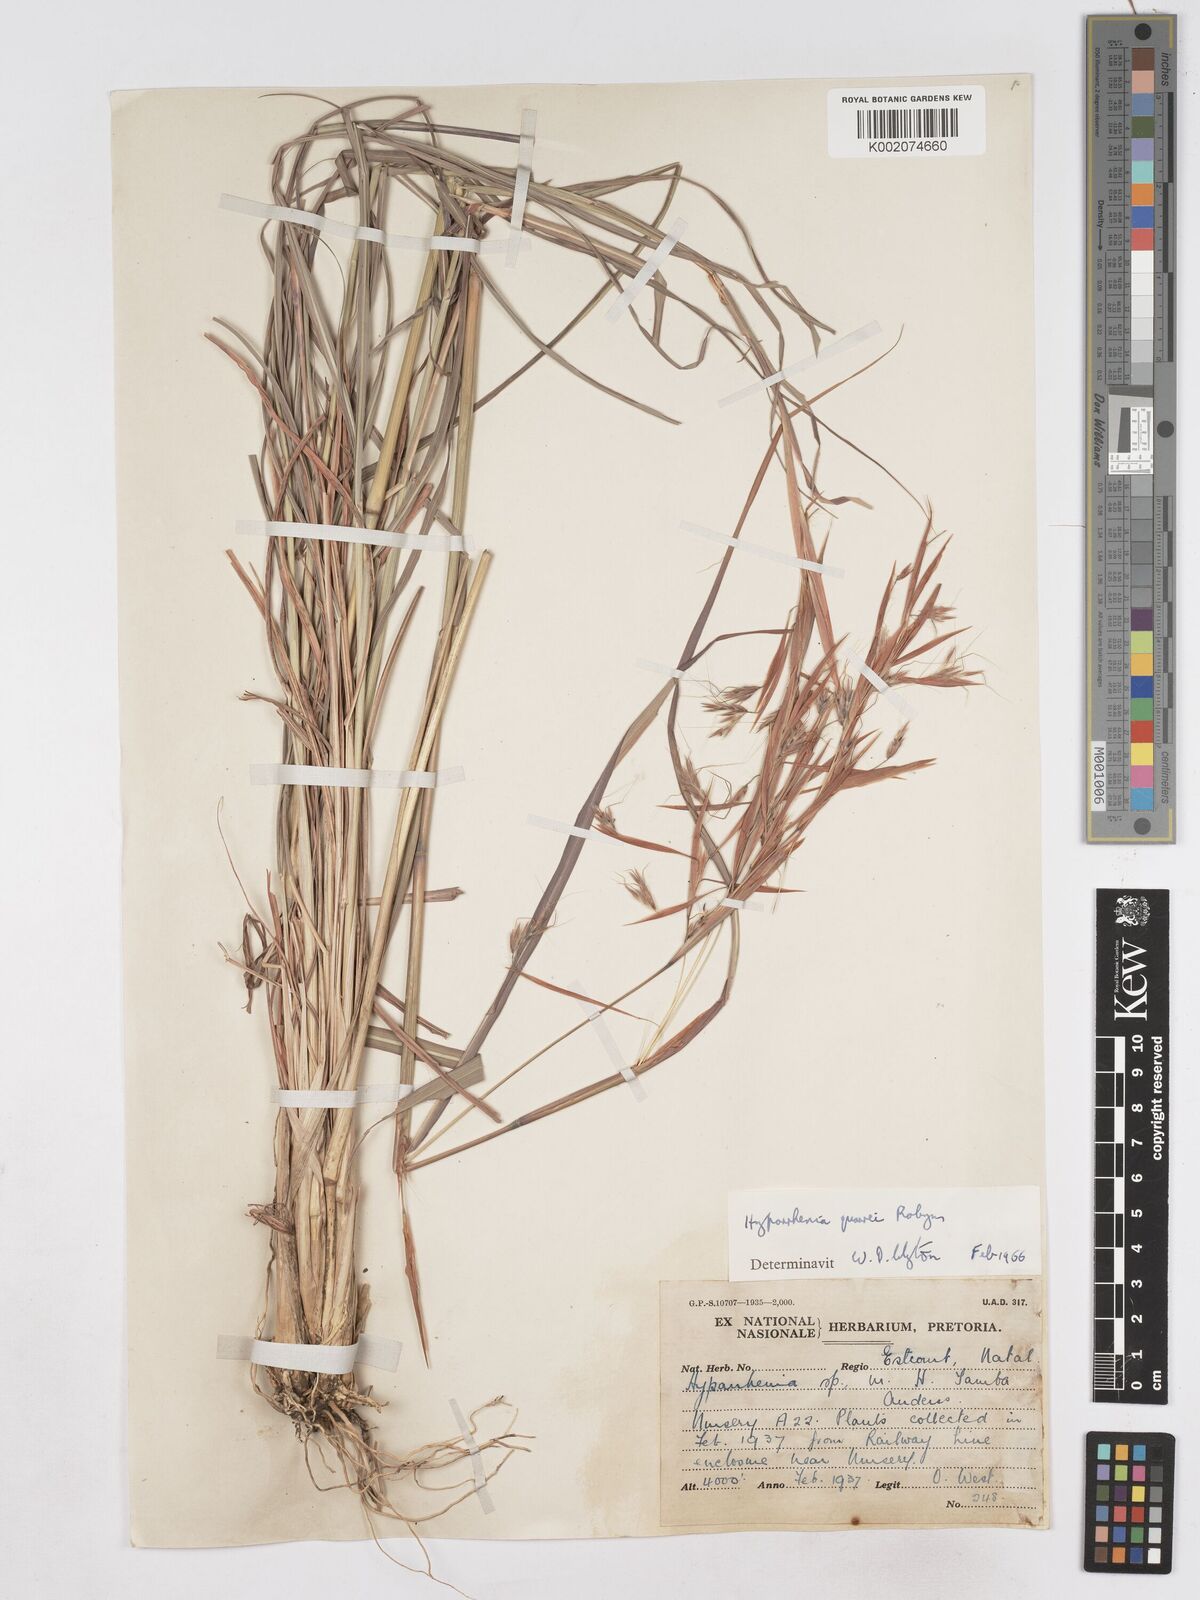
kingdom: Plantae
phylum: Tracheophyta
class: Liliopsida
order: Poales
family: Poaceae
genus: Hyparrhenia
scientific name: Hyparrhenia quarrei
